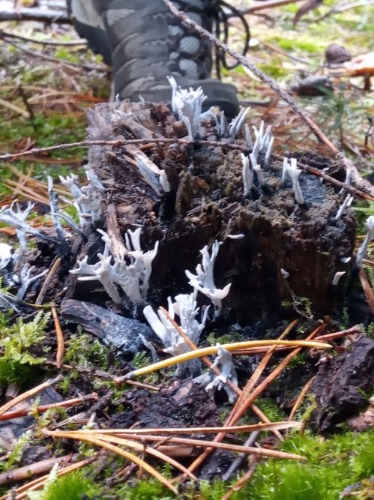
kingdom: Fungi
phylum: Ascomycota
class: Sordariomycetes
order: Xylariales
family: Xylariaceae
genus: Xylaria
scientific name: Xylaria hypoxylon
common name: Grenet stødsvamp
